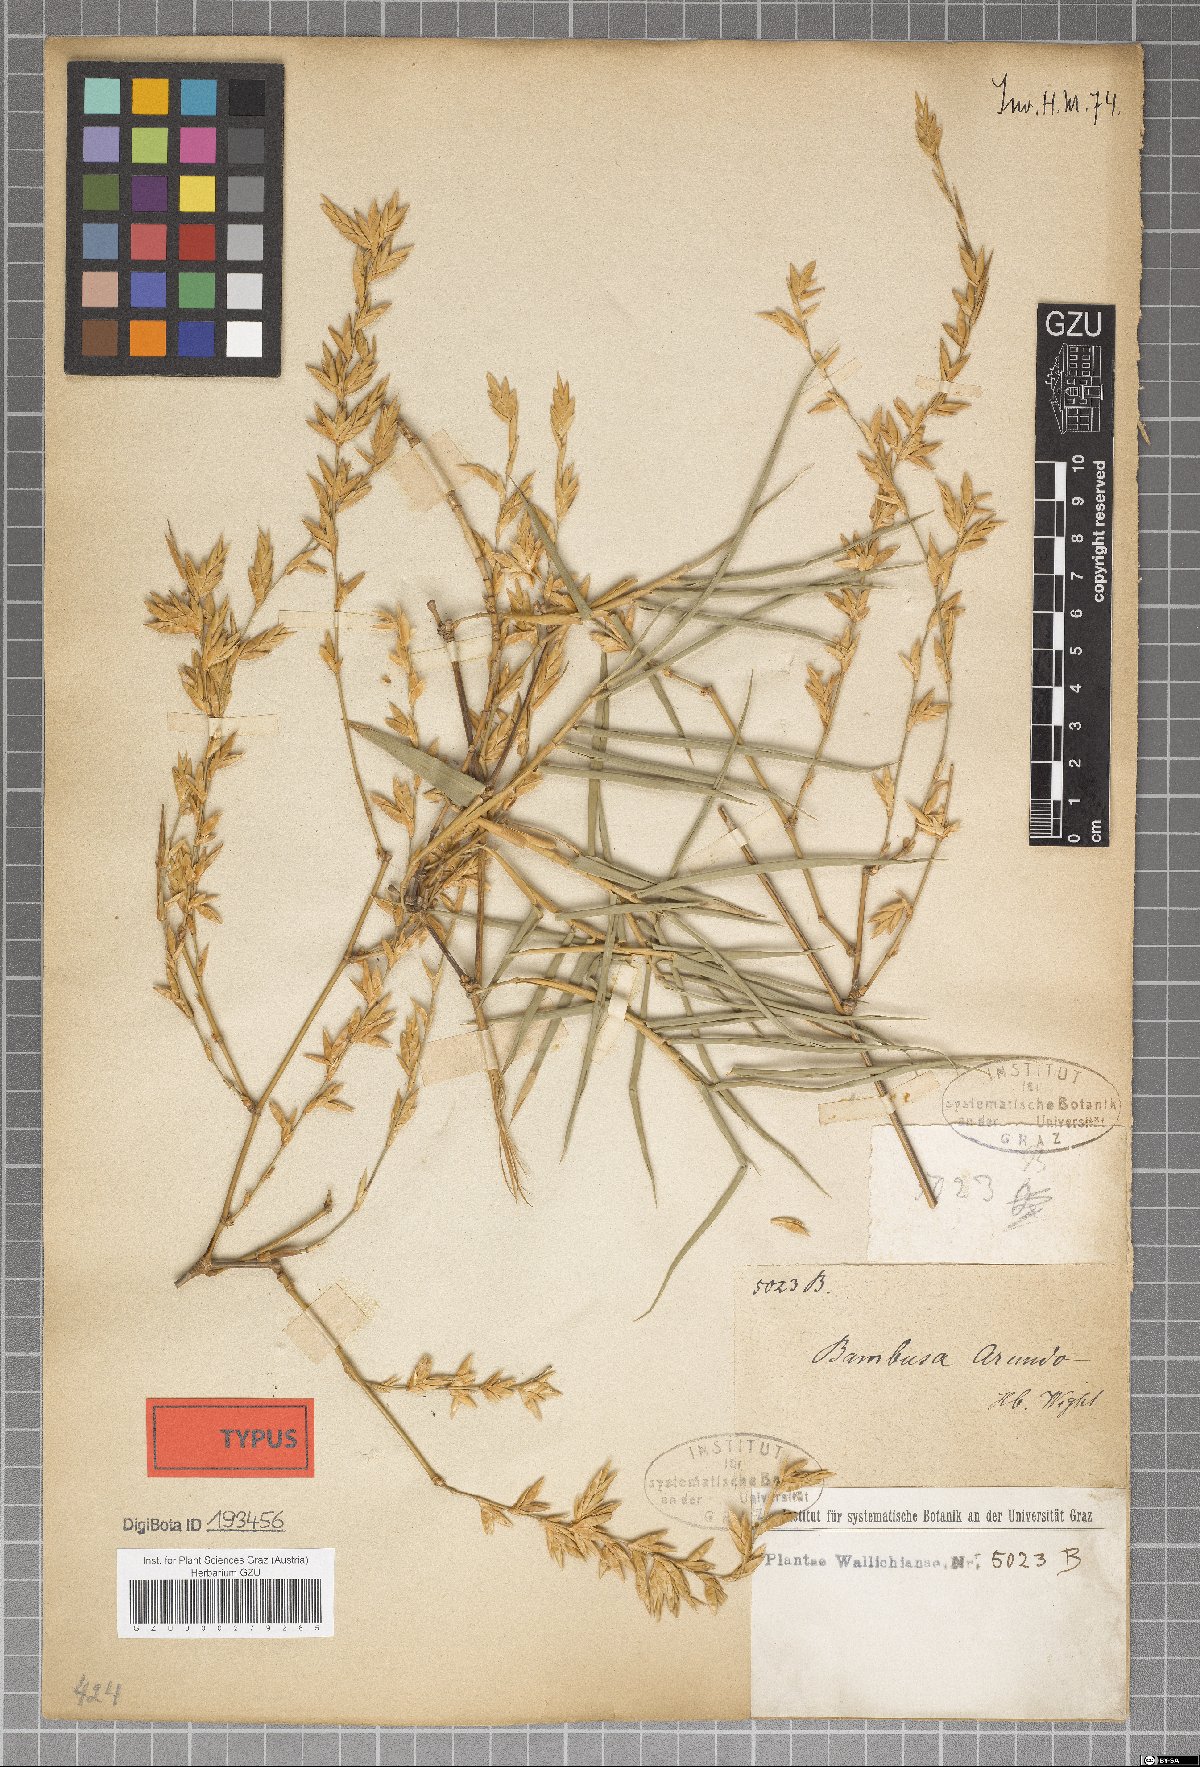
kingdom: Plantae
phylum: Tracheophyta
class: Liliopsida
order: Poales
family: Poaceae
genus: Bambusa
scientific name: Bambusa arundo
